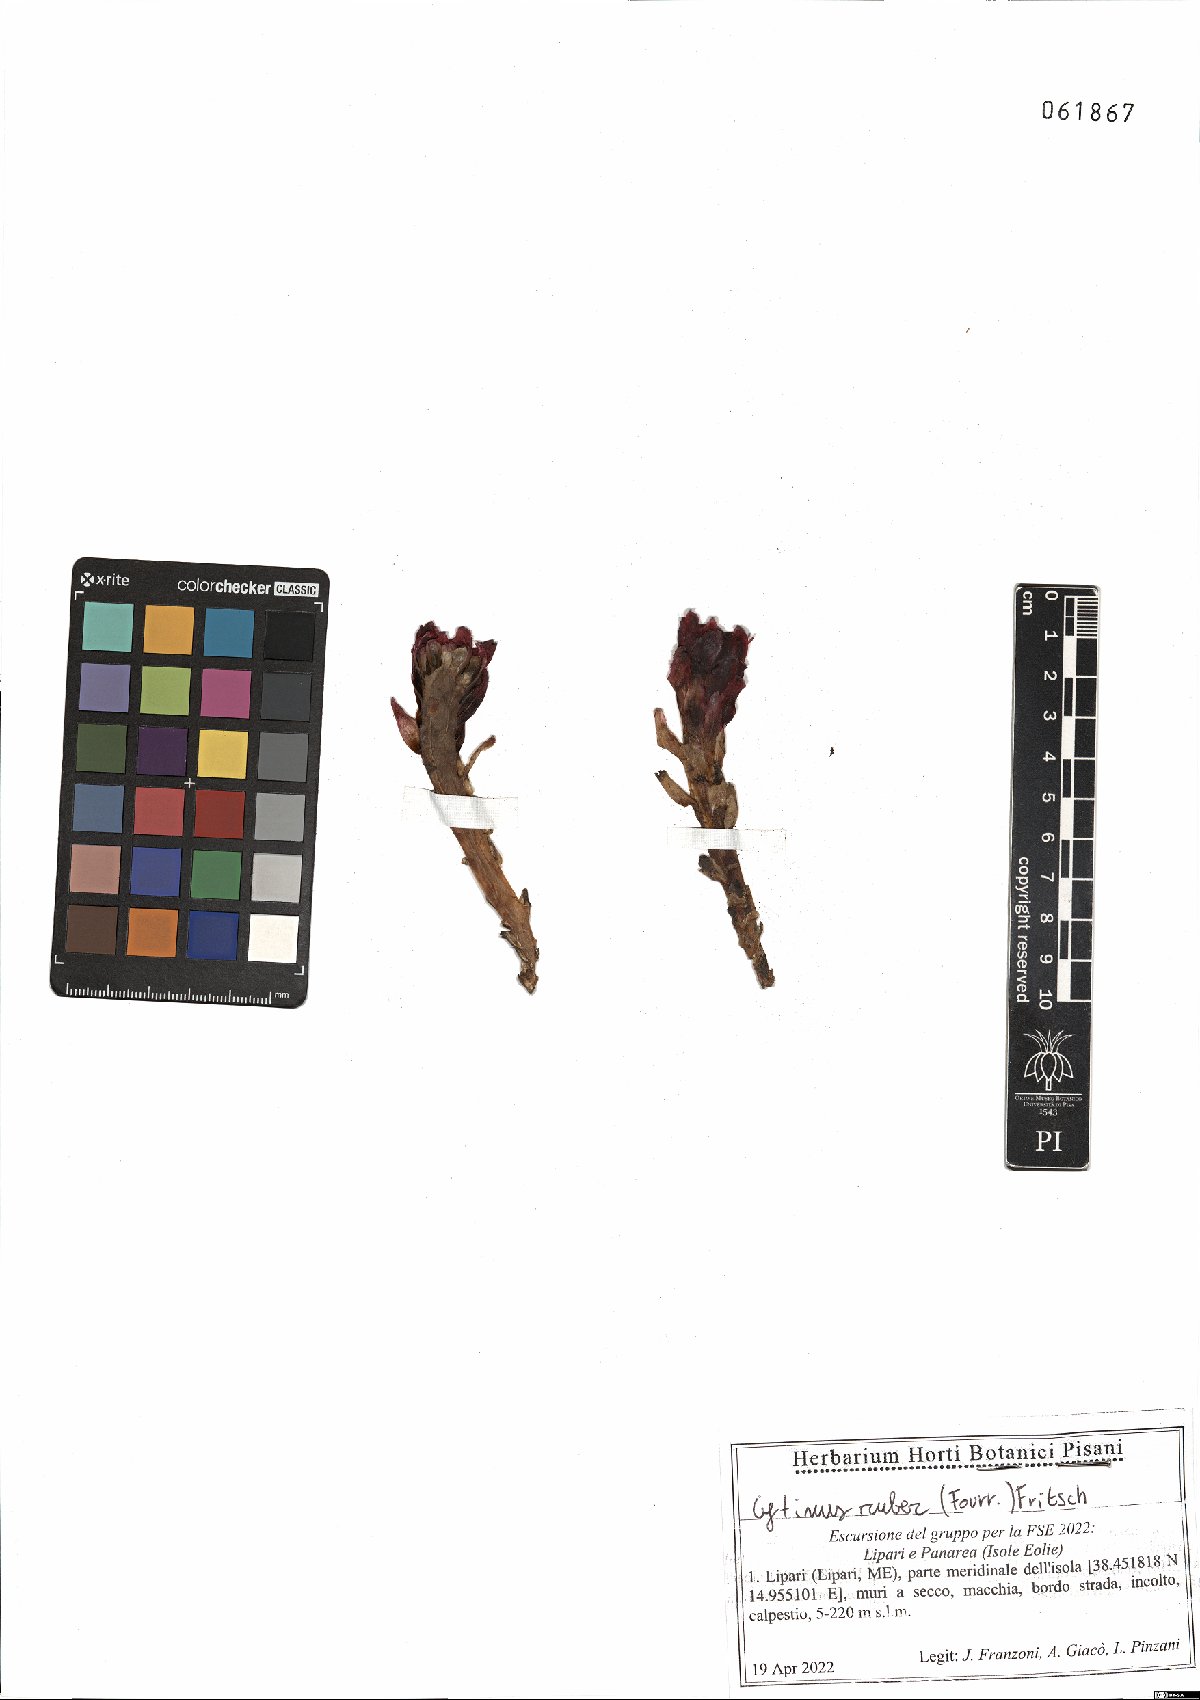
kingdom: Plantae
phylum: Tracheophyta
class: Magnoliopsida
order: Malvales
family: Cytinaceae
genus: Cytinus
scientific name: Cytinus ruber
